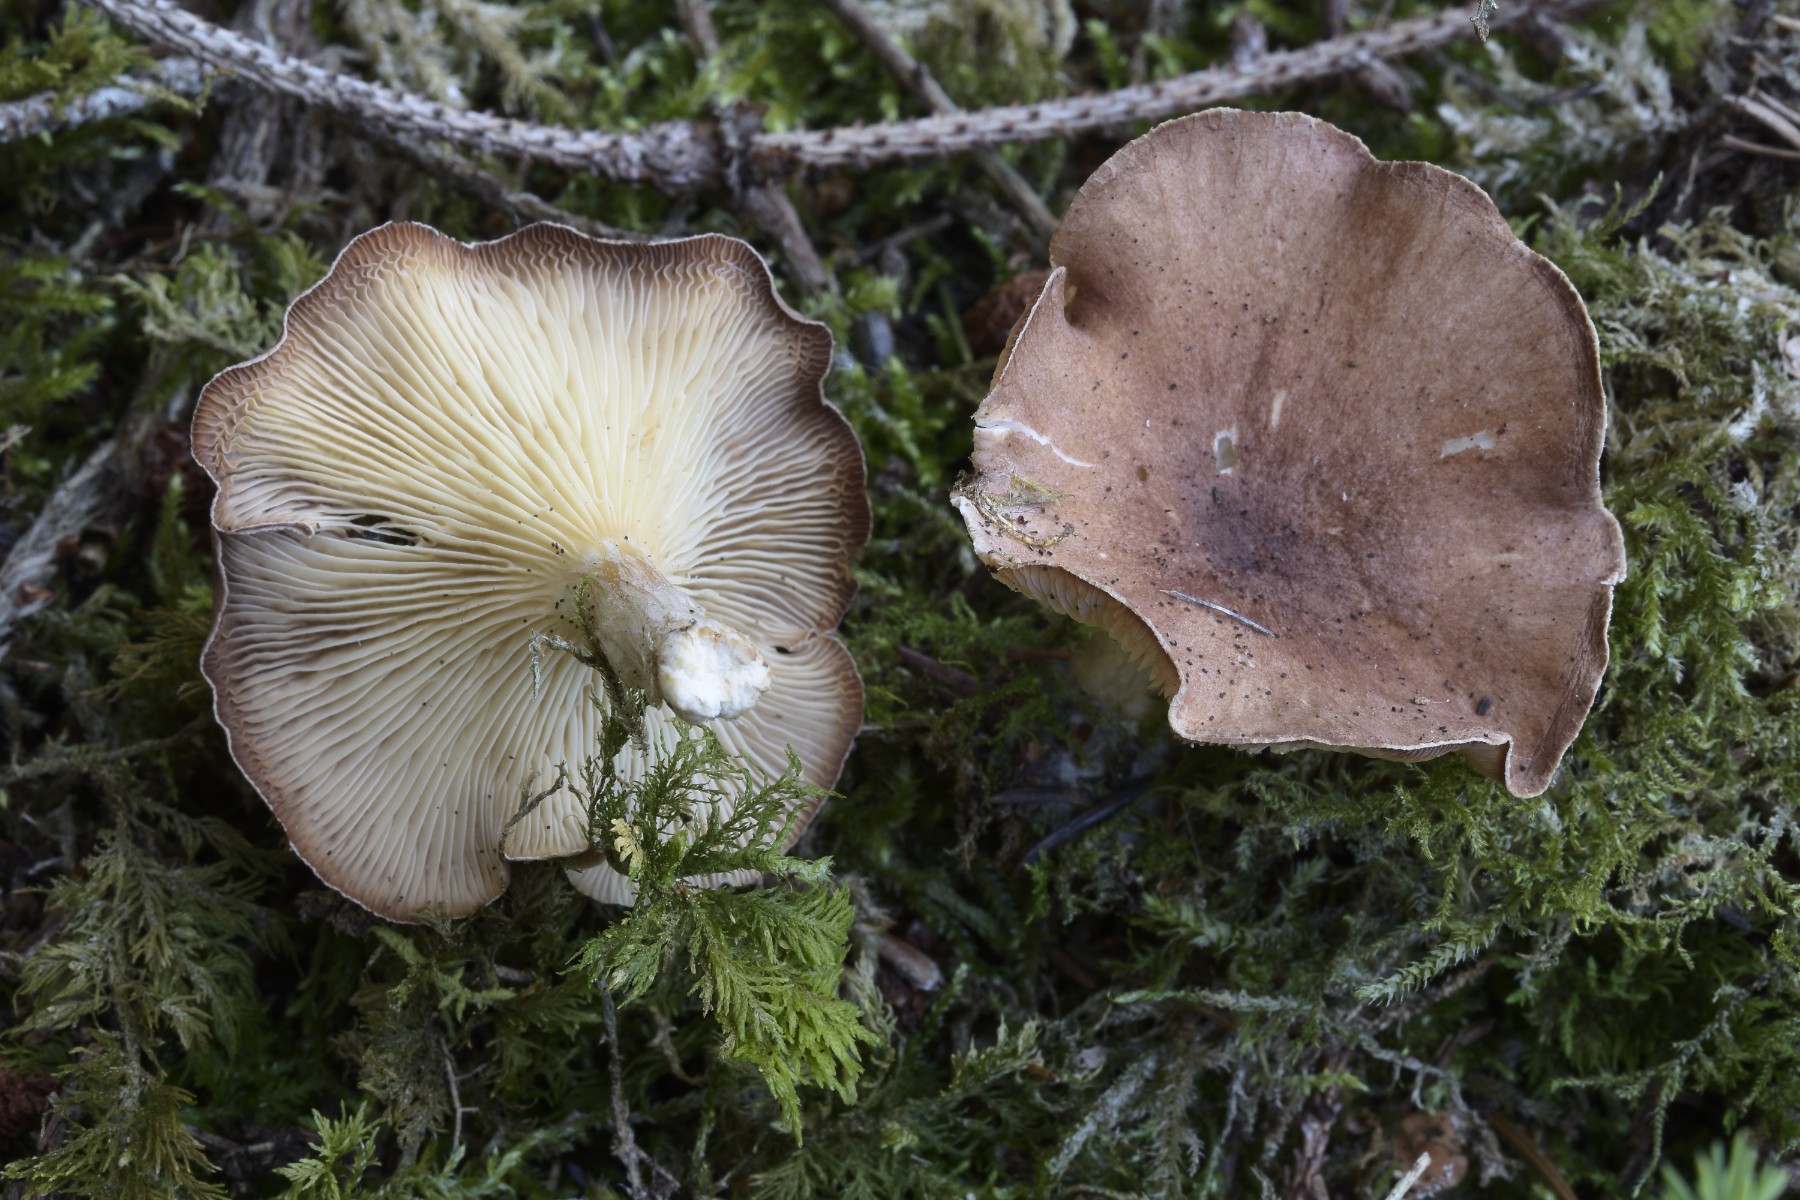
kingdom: Fungi
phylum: Basidiomycota
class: Agaricomycetes
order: Agaricales
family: Tricholomataceae
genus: Infundibulicybe
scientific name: Infundibulicybe
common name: tragthat
